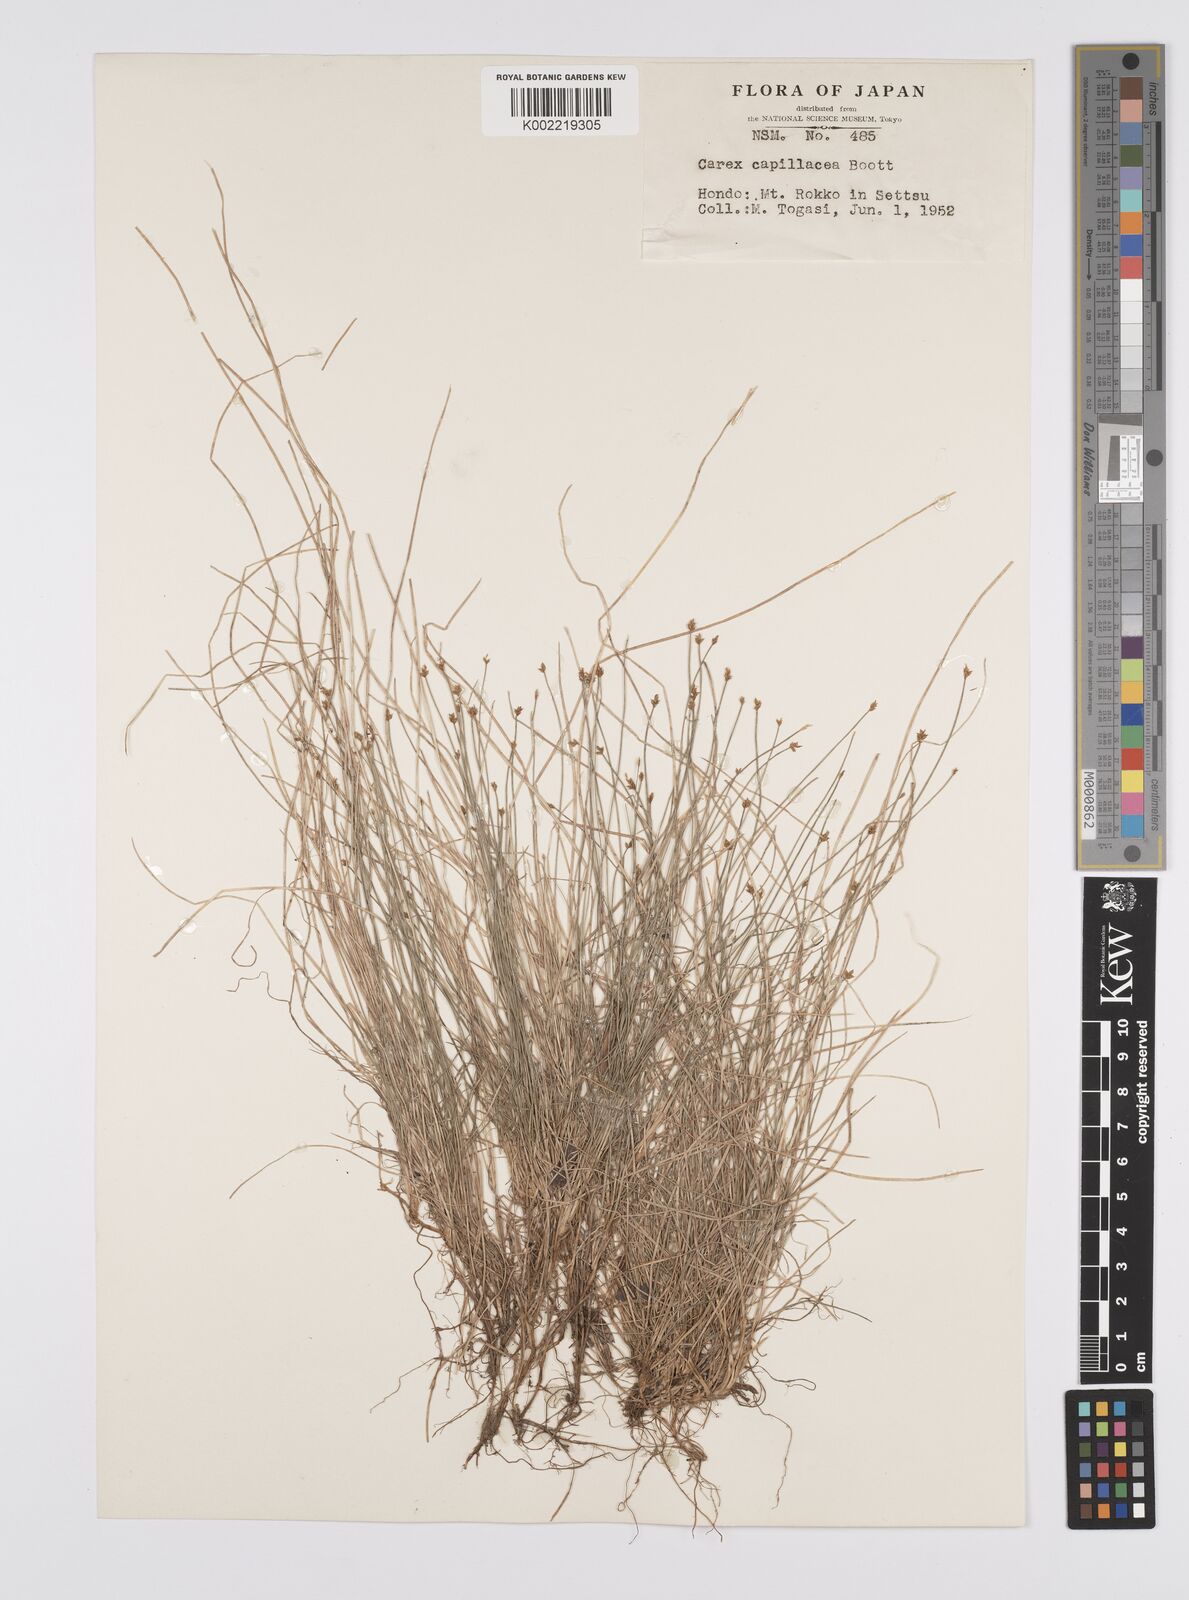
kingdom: Plantae
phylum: Tracheophyta
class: Liliopsida
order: Poales
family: Cyperaceae
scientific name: Cyperaceae
